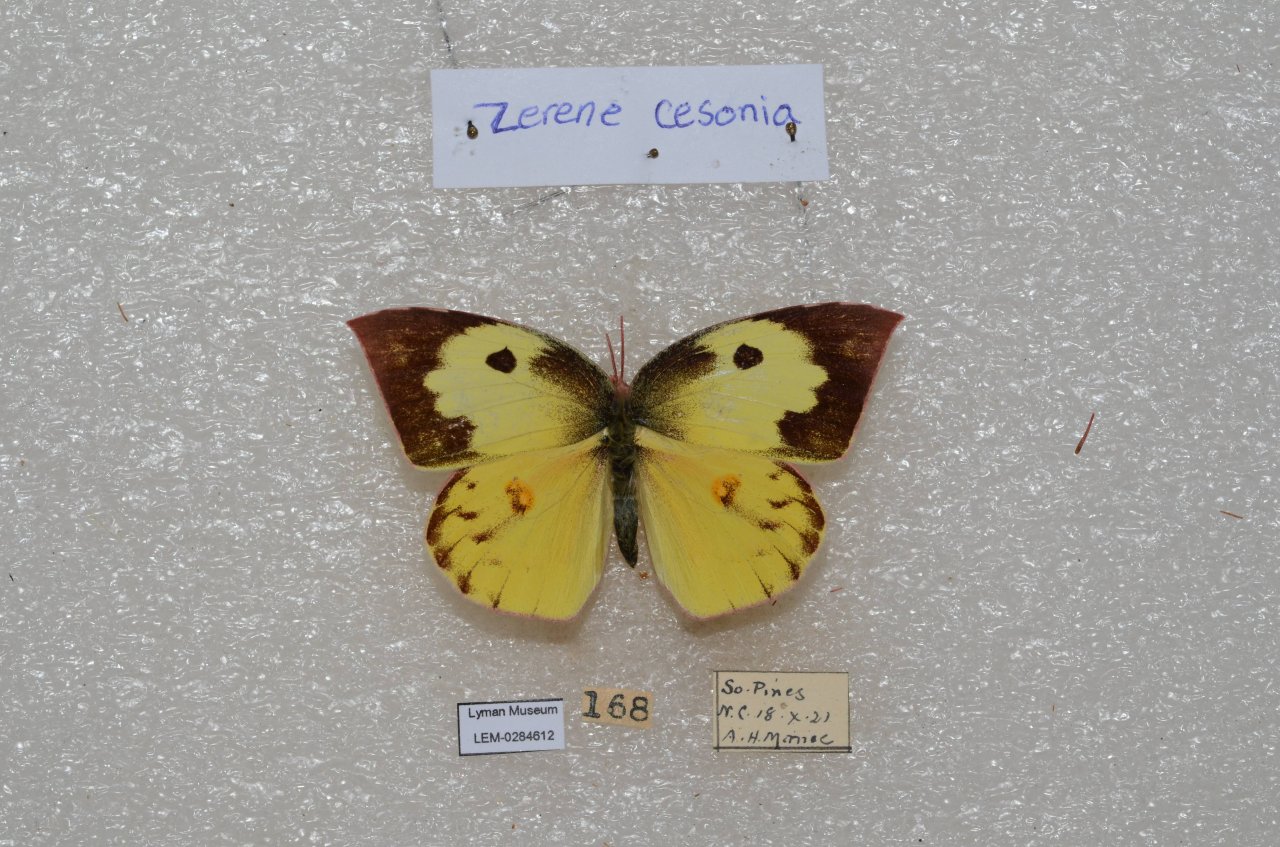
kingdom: Animalia
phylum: Arthropoda
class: Insecta
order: Lepidoptera
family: Pieridae
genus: Zerene
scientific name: Zerene cesonia
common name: Southern Dogface
